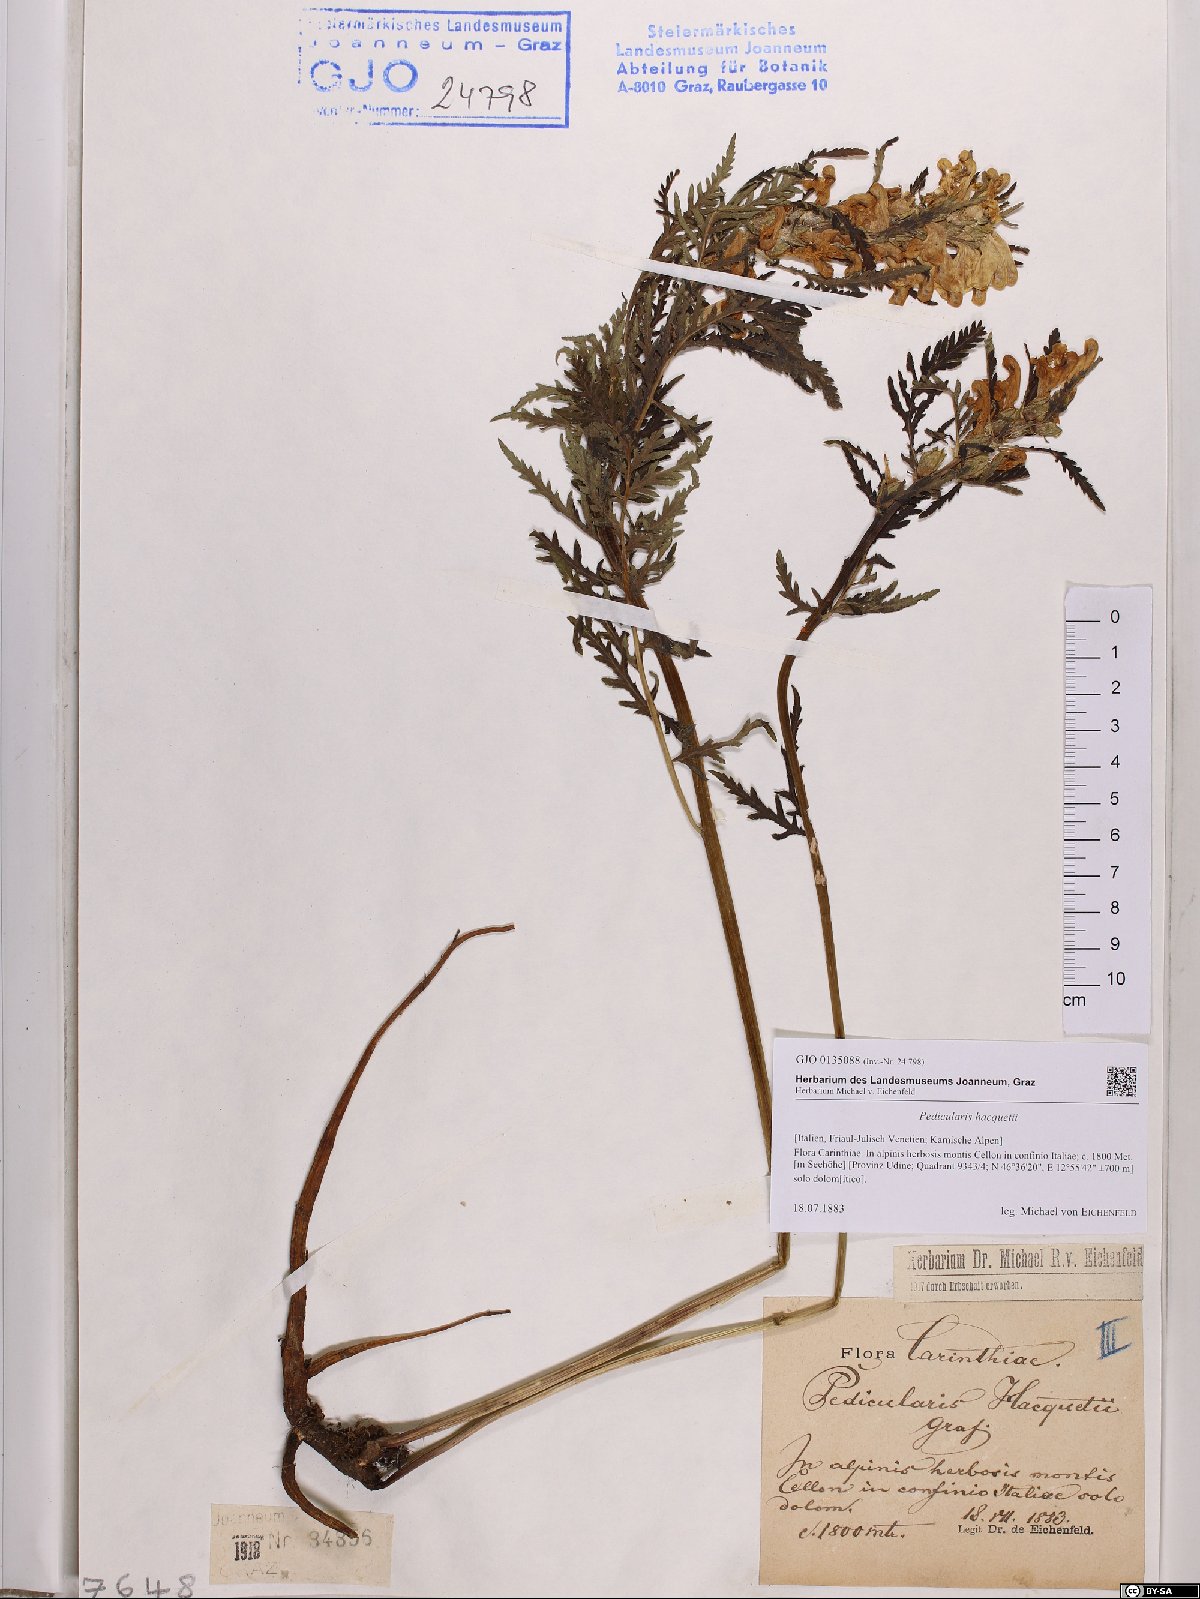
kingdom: Plantae
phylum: Tracheophyta
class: Magnoliopsida
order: Lamiales
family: Orobanchaceae
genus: Pedicularis
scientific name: Pedicularis hacquetii
